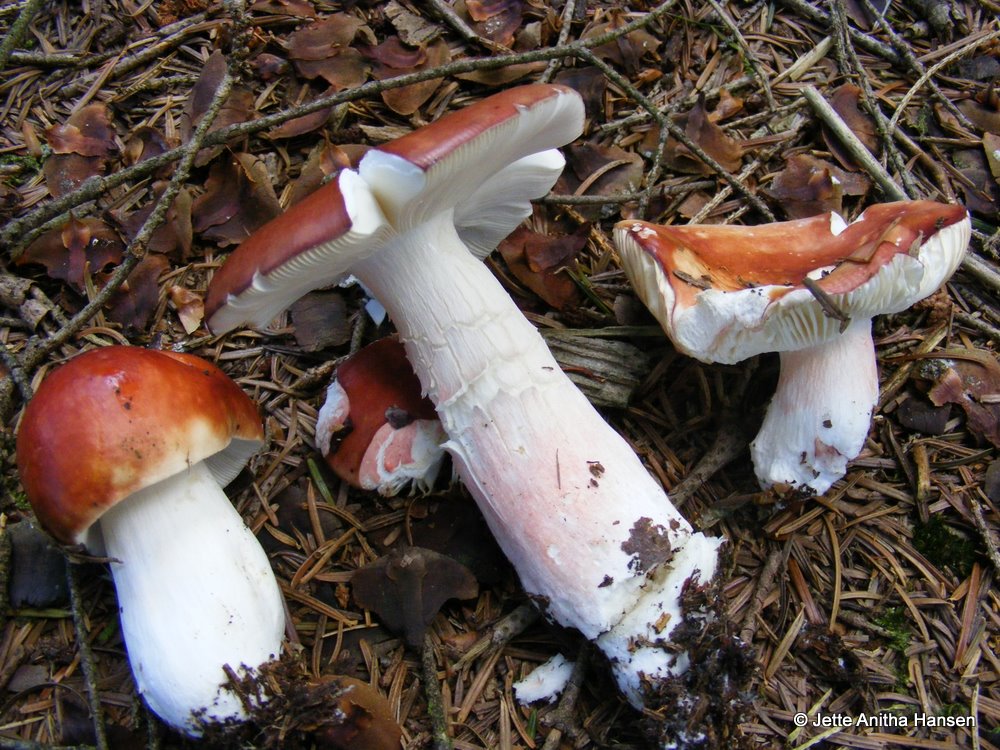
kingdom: Fungi
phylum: Basidiomycota
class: Agaricomycetes
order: Russulales
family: Russulaceae
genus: Russula
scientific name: Russula paludosa
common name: prægtig skørhat
